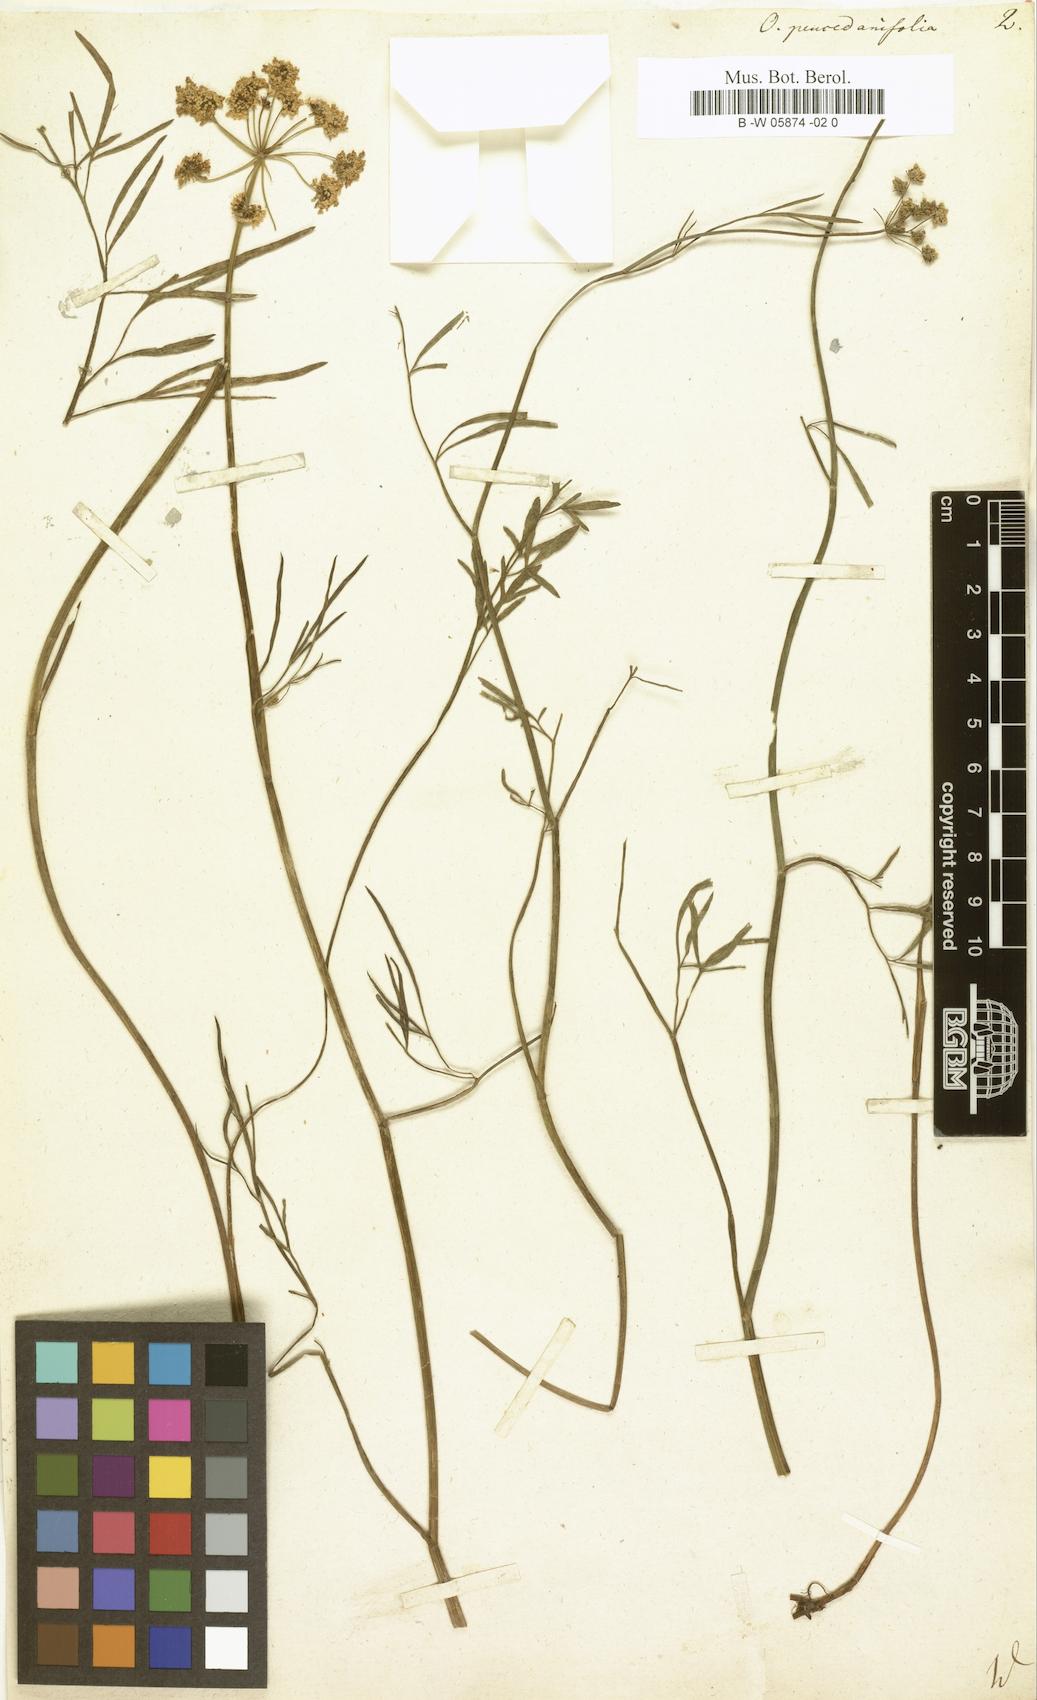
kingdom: Plantae
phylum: Tracheophyta
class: Magnoliopsida
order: Apiales
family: Apiaceae
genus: Oenanthe
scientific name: Oenanthe peucedanifolia
